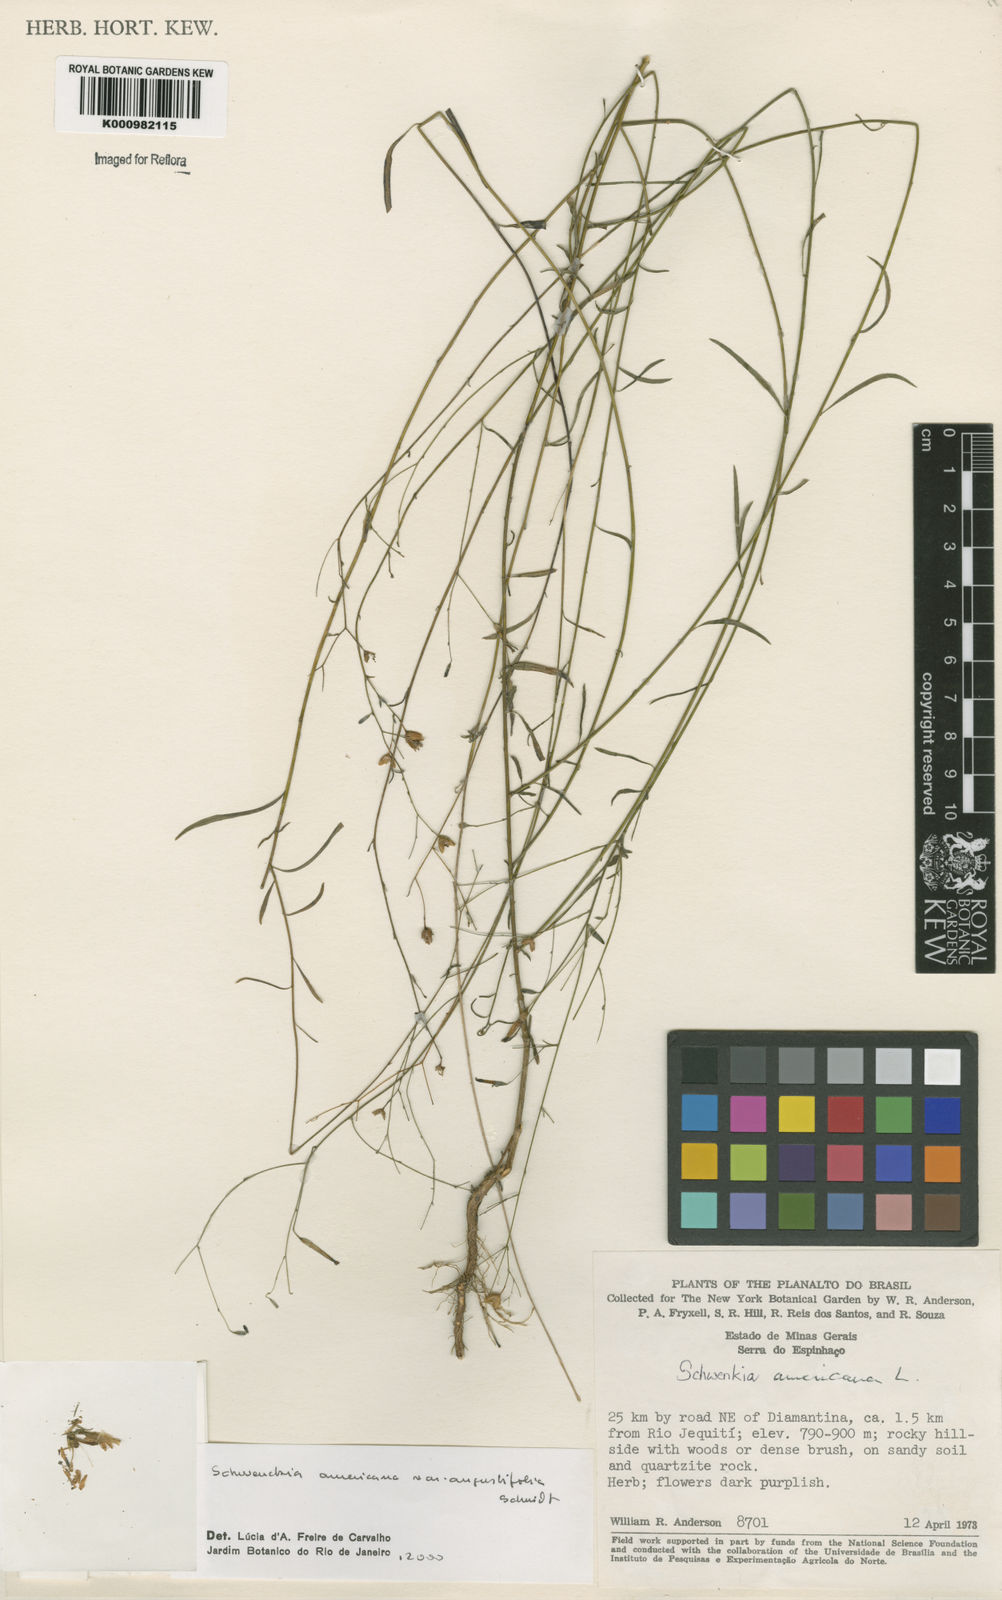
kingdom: Plantae
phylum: Tracheophyta
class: Magnoliopsida
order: Solanales
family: Solanaceae
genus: Schwenckia
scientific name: Schwenckia americana
